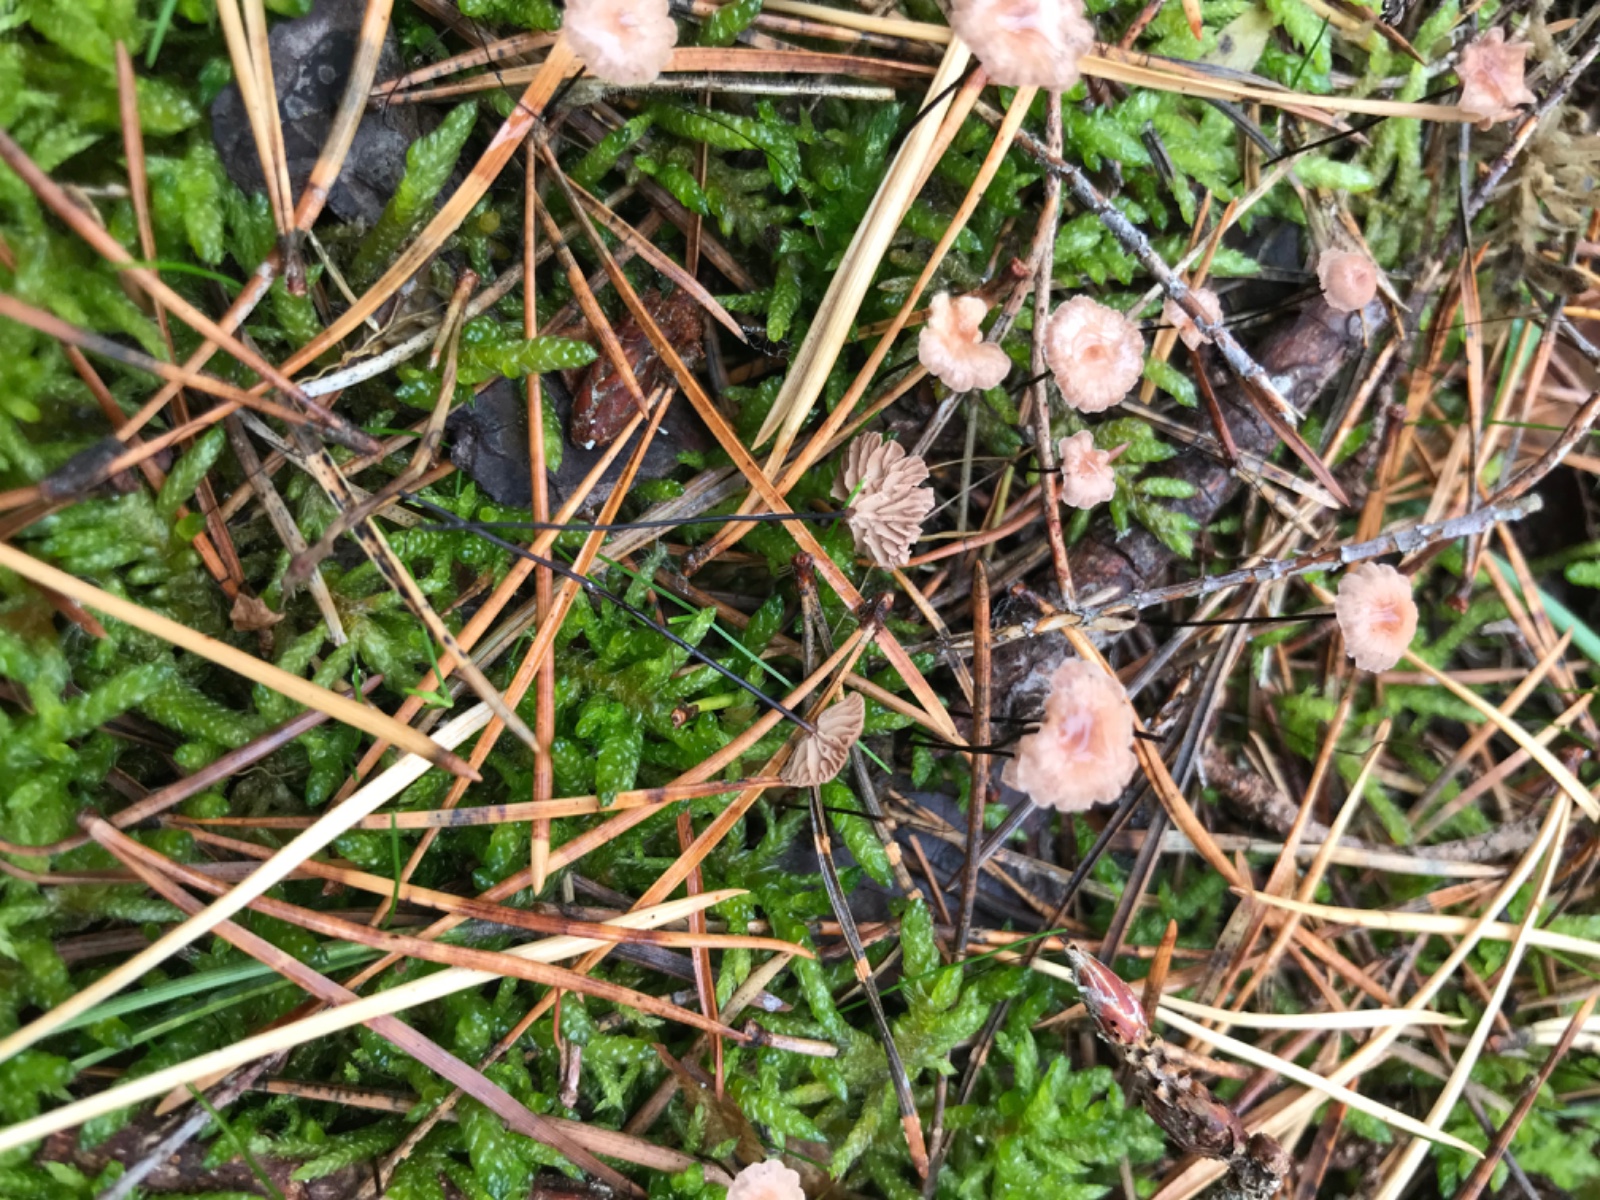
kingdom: Fungi
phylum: Basidiomycota
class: Agaricomycetes
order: Agaricales
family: Omphalotaceae
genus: Gymnopus
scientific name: Gymnopus androsaceus
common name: trådstokket fladhat
